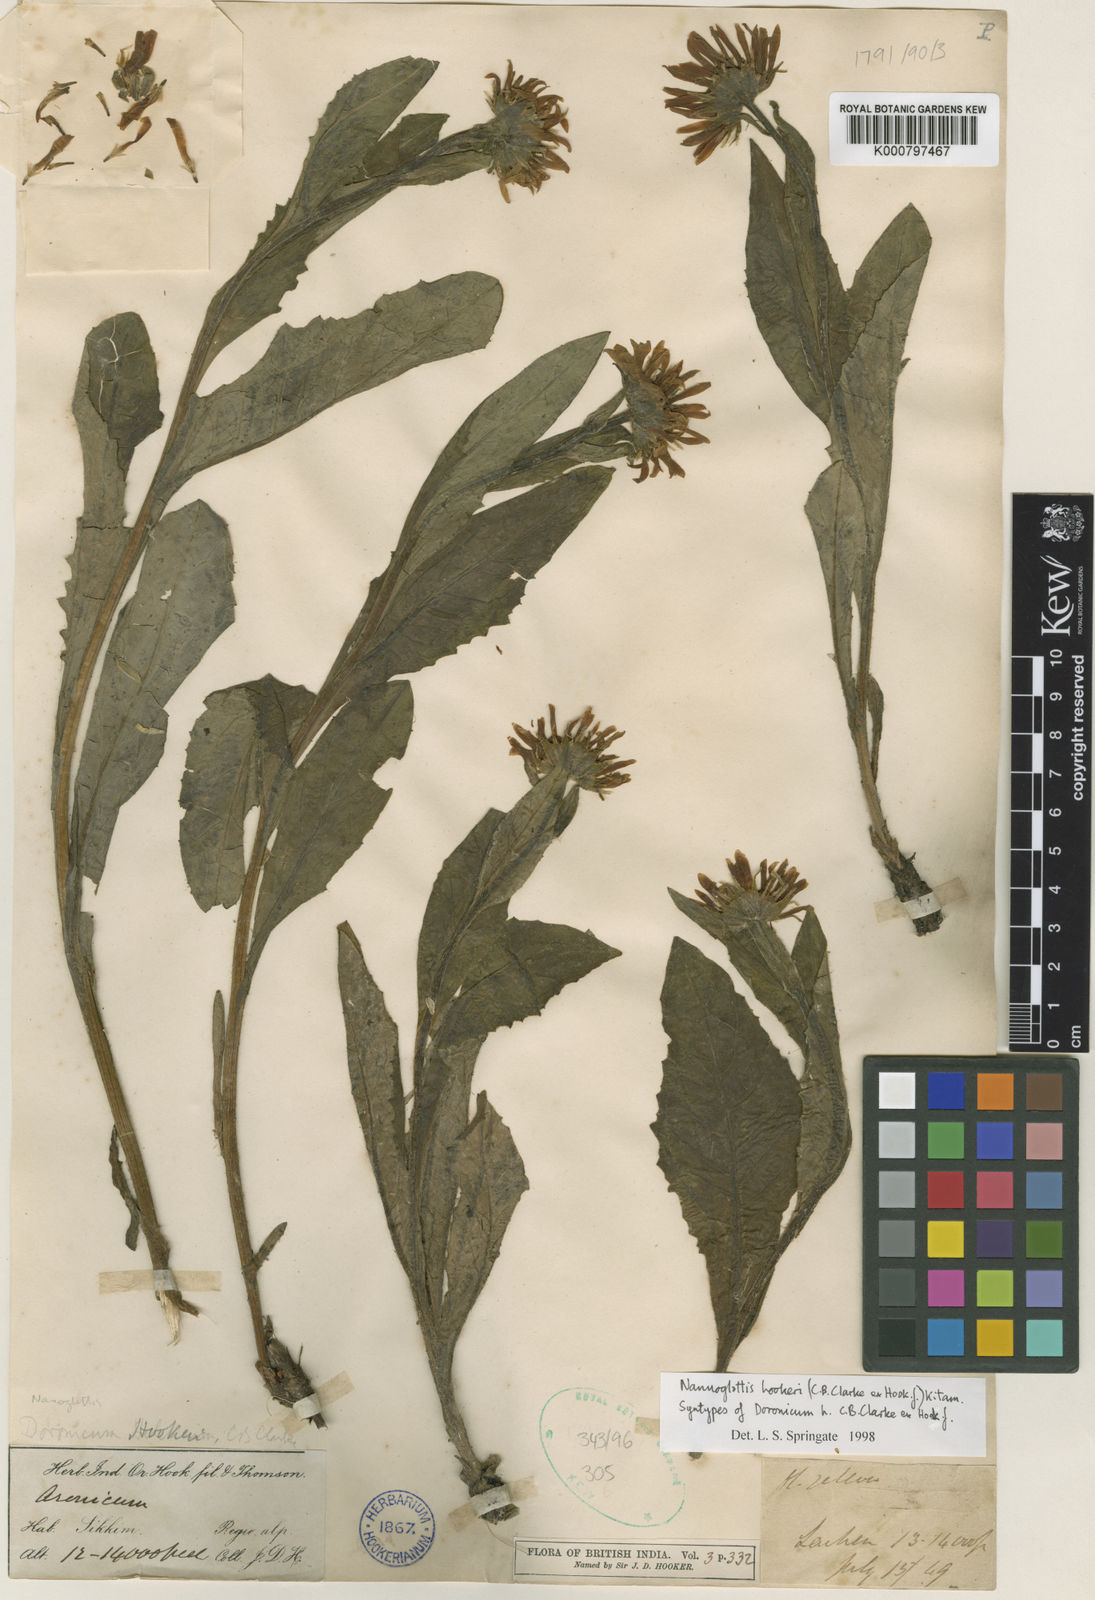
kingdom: Plantae
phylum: Tracheophyta
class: Magnoliopsida
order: Asterales
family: Asteraceae
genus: Nannoglottis
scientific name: Nannoglottis hookeri
